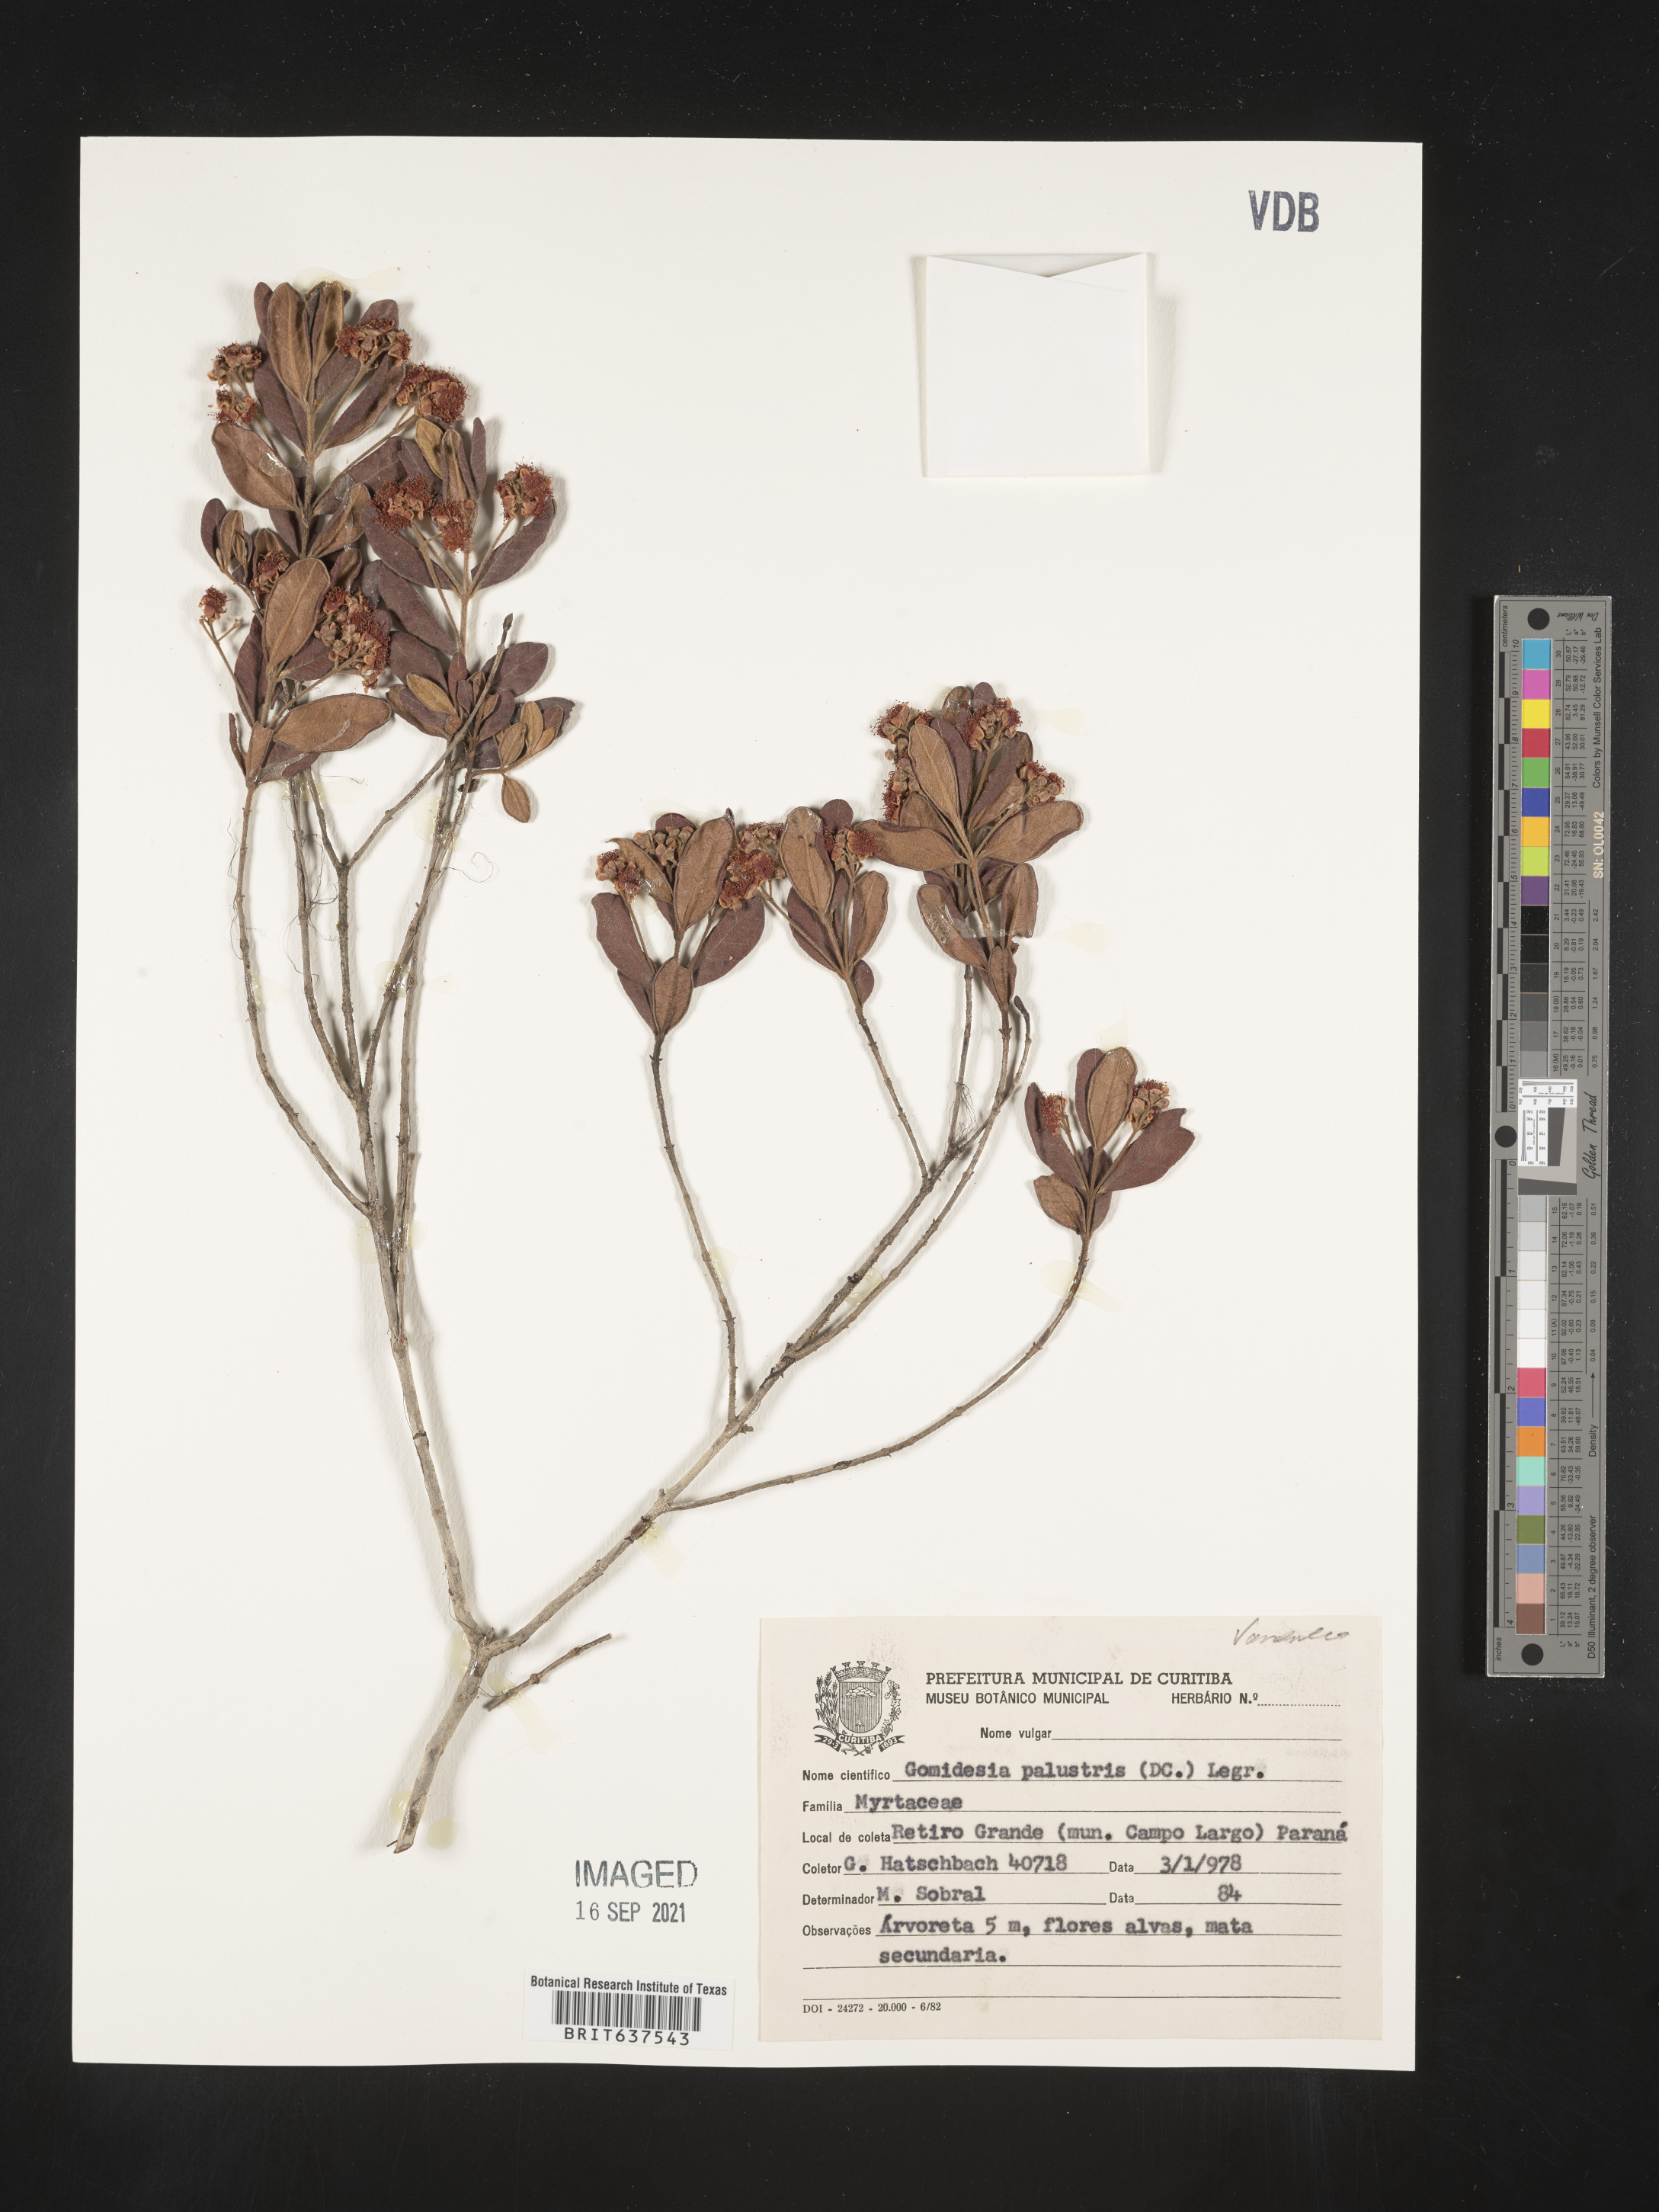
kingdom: Plantae
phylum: Tracheophyta
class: Magnoliopsida
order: Myrtales
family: Myrtaceae
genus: Myrcia
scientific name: Myrcia
